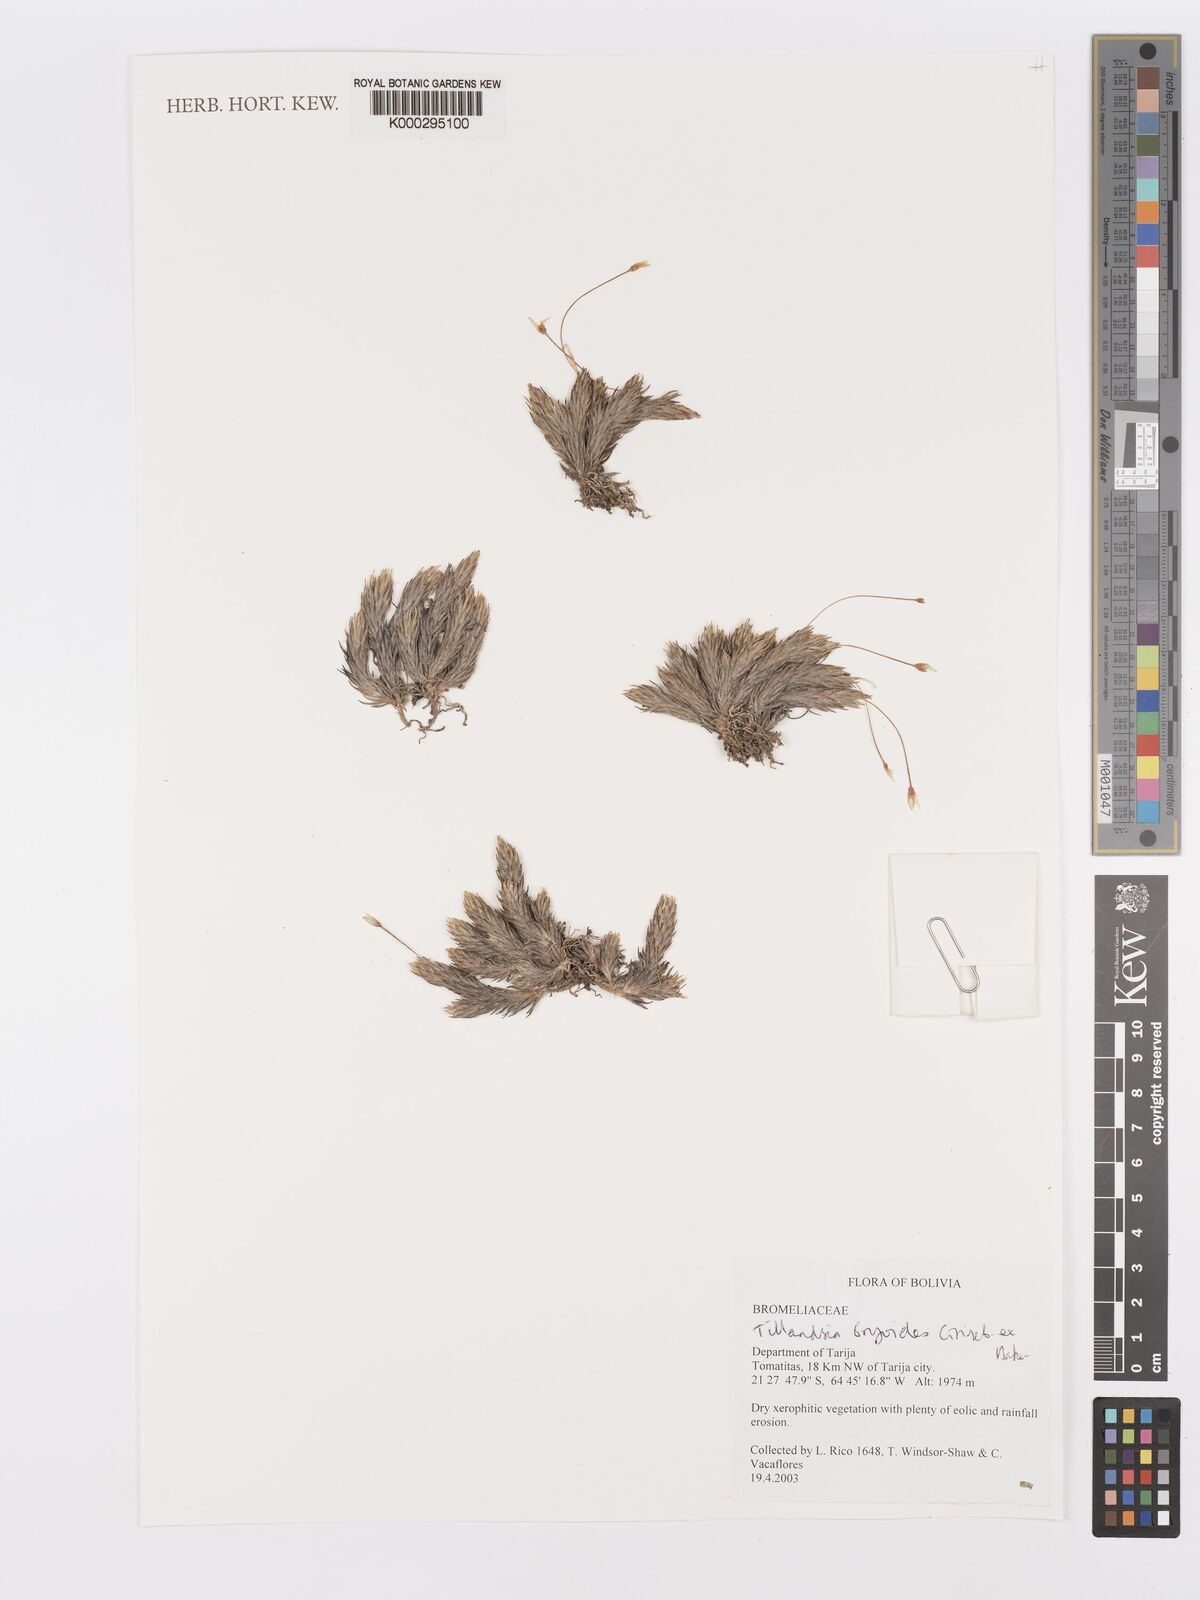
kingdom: Plantae
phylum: Tracheophyta
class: Liliopsida
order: Poales
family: Bromeliaceae
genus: Tillandsia
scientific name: Tillandsia tricholepis
